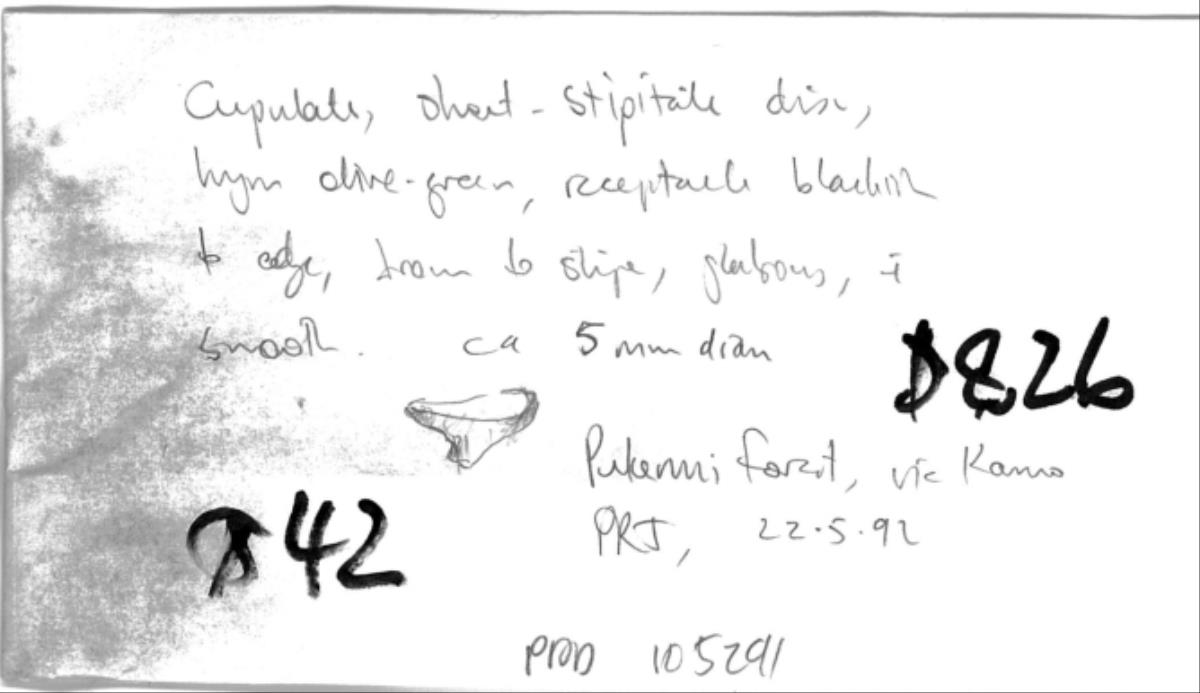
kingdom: Fungi
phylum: Ascomycota
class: Leotiomycetes
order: Helotiales
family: Cenangiaceae
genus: Chlorencoelia
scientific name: Chlorencoelia
